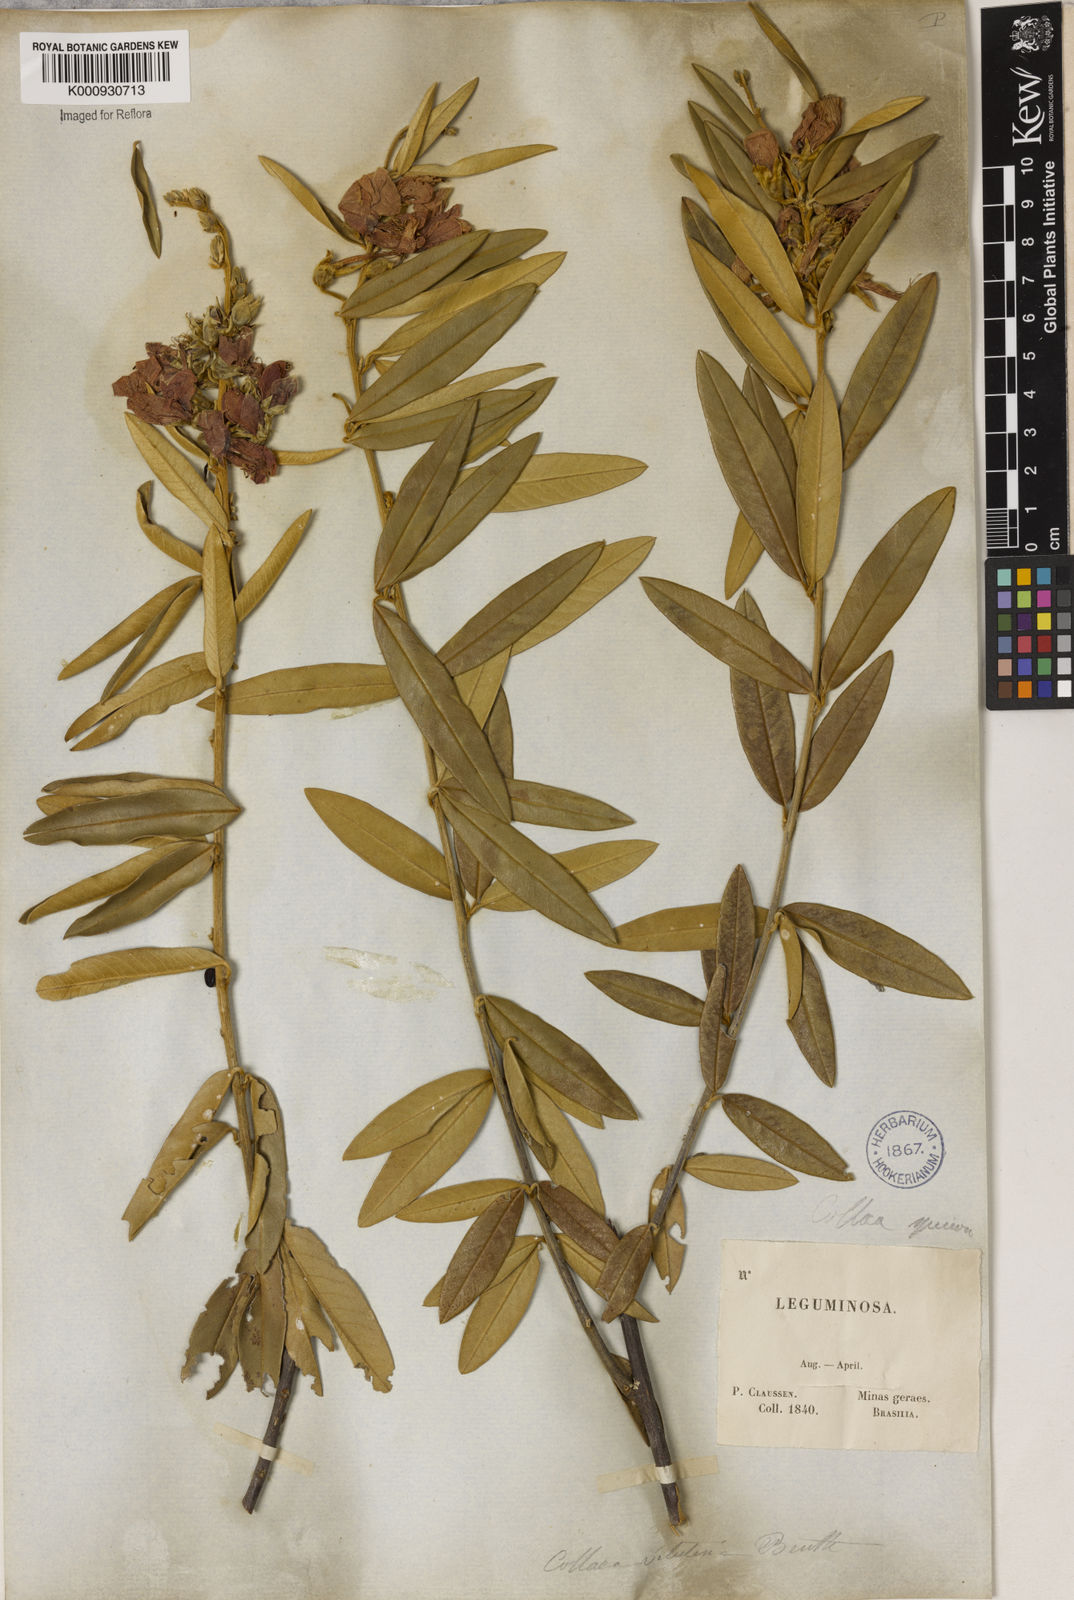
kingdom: Plantae
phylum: Tracheophyta
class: Magnoliopsida
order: Lamiales
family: Lamiaceae
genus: Coleus
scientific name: Coleus barbatus
